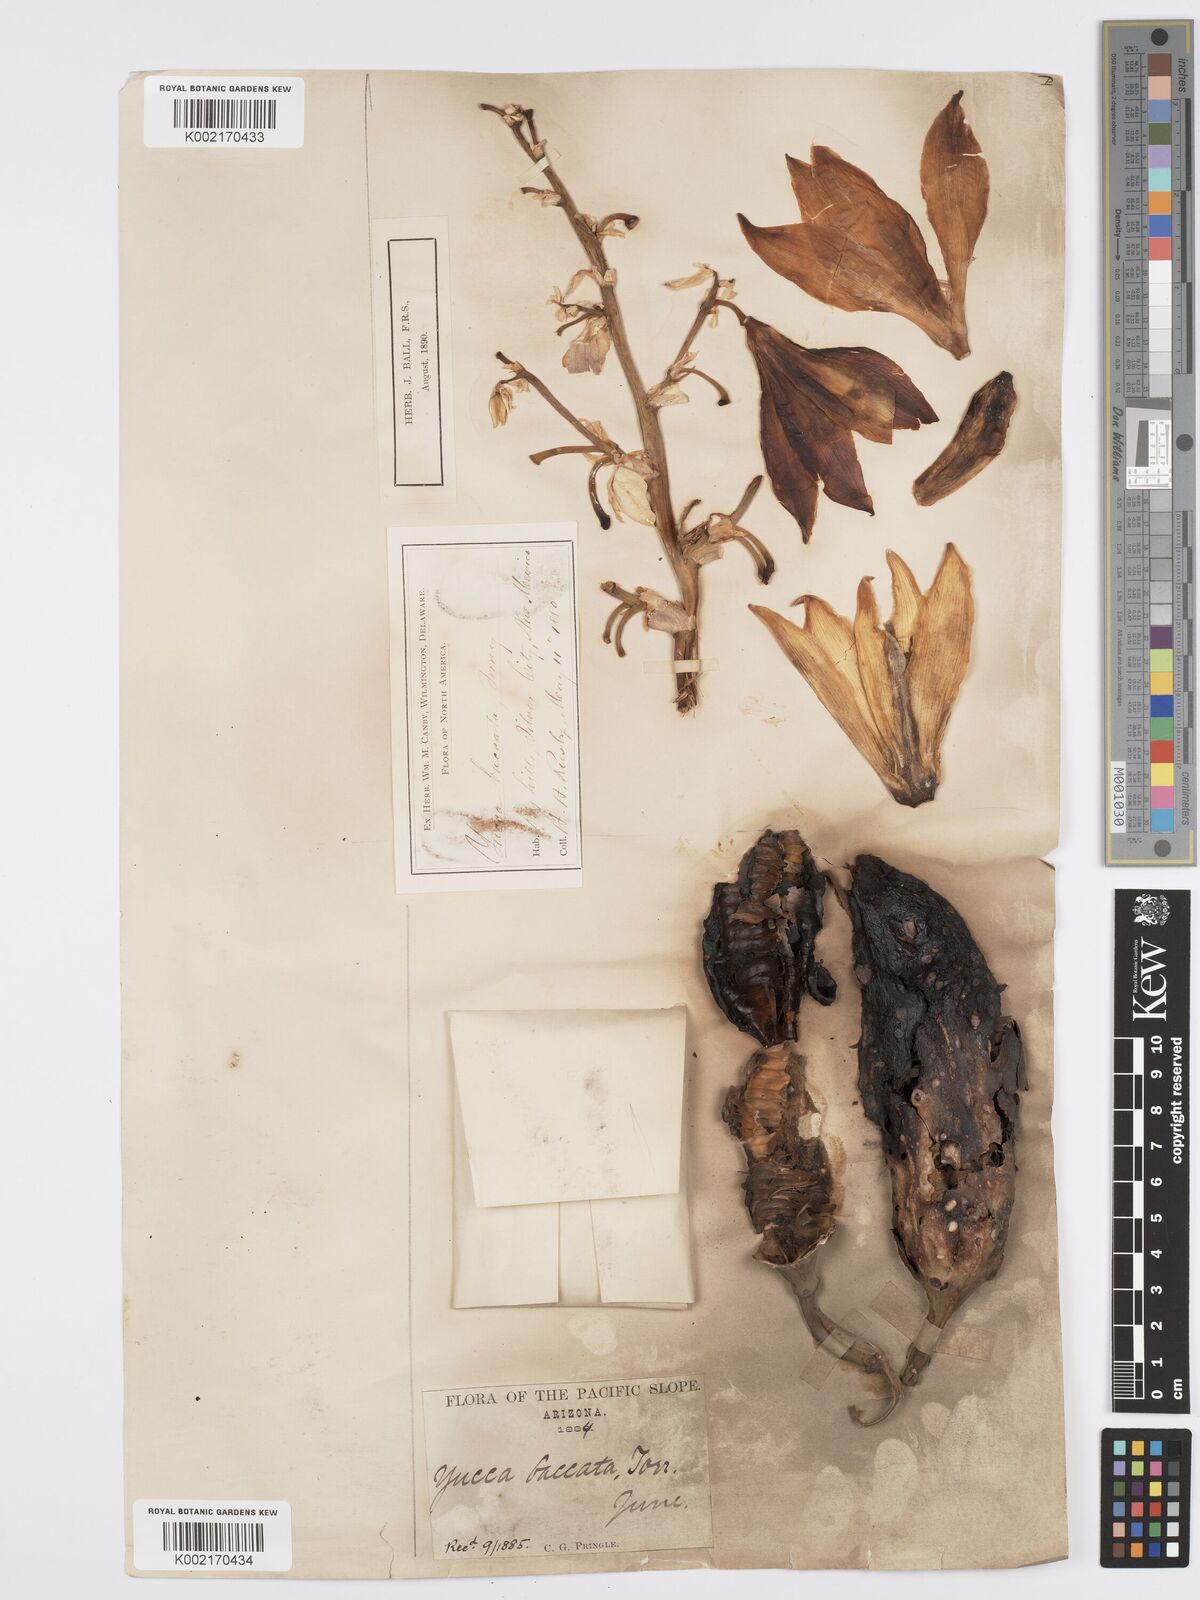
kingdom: Plantae
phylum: Tracheophyta
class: Liliopsida
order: Asparagales
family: Asparagaceae
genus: Yucca
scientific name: Yucca baccata
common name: Banana yucca
